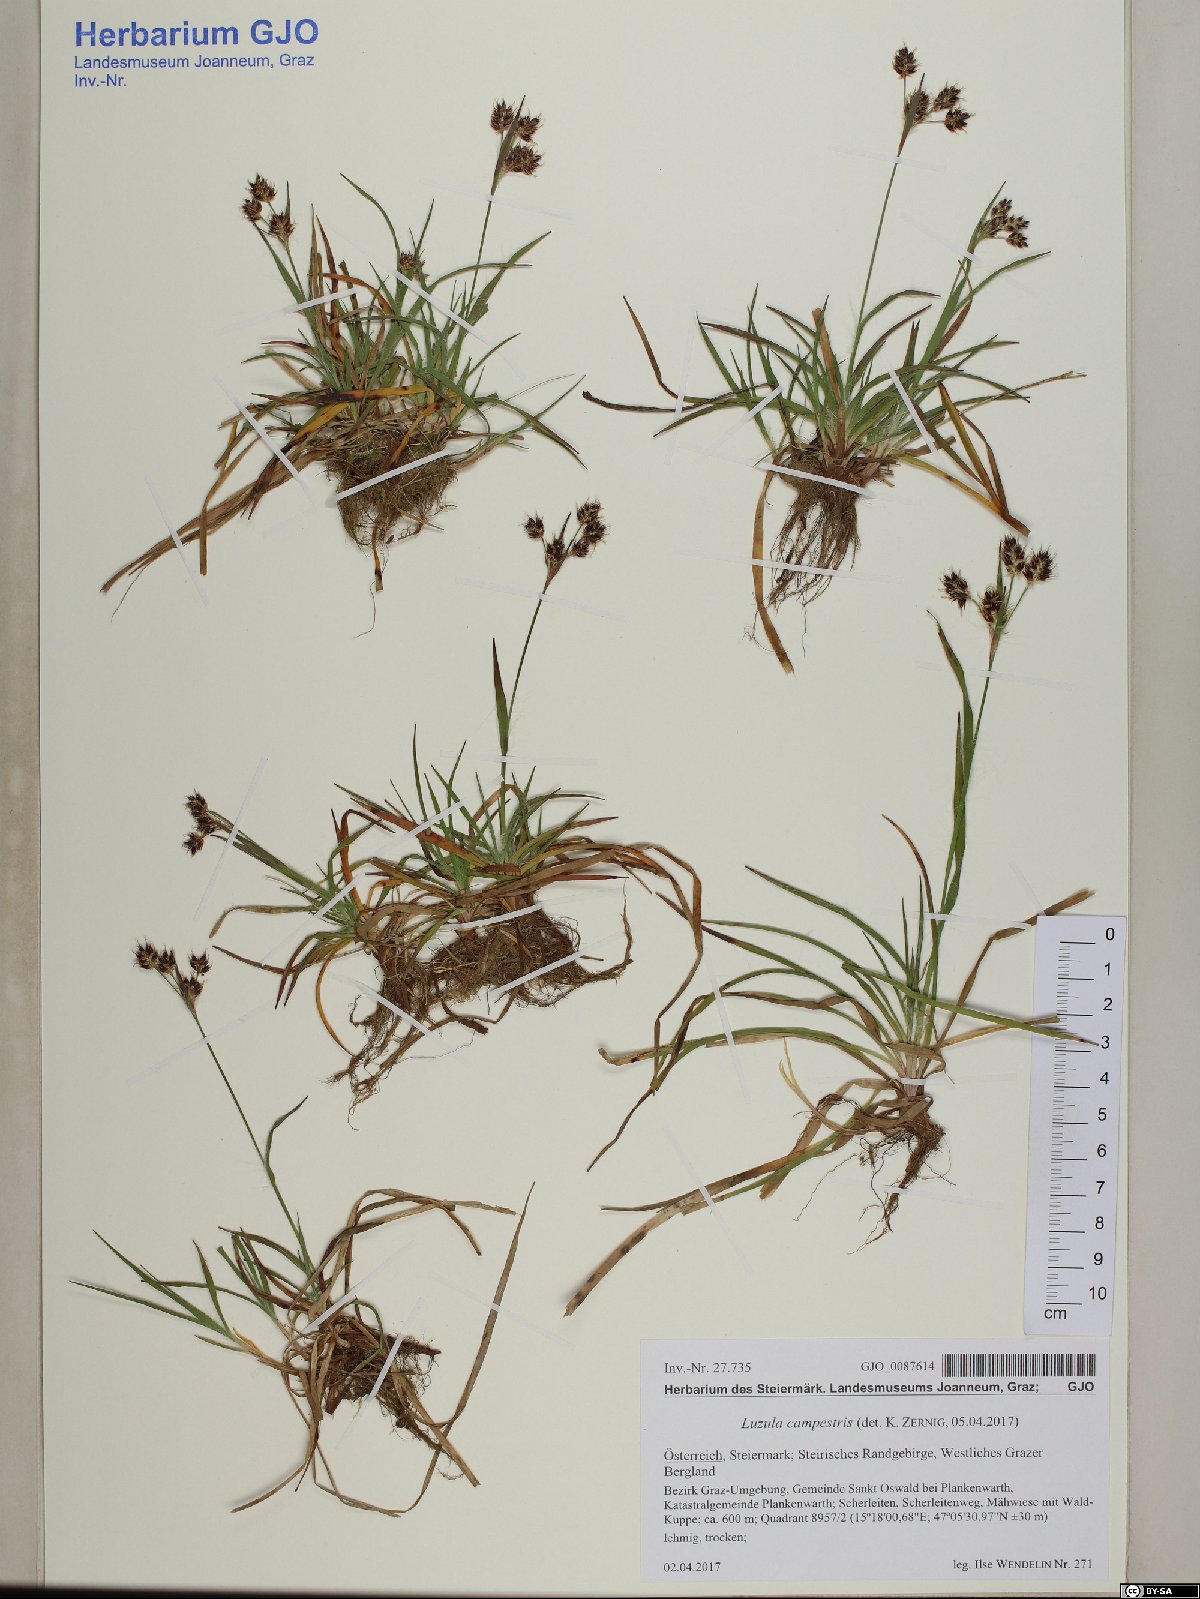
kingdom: Plantae
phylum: Tracheophyta
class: Liliopsida
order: Poales
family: Juncaceae
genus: Luzula
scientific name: Luzula campestris
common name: Field wood-rush
